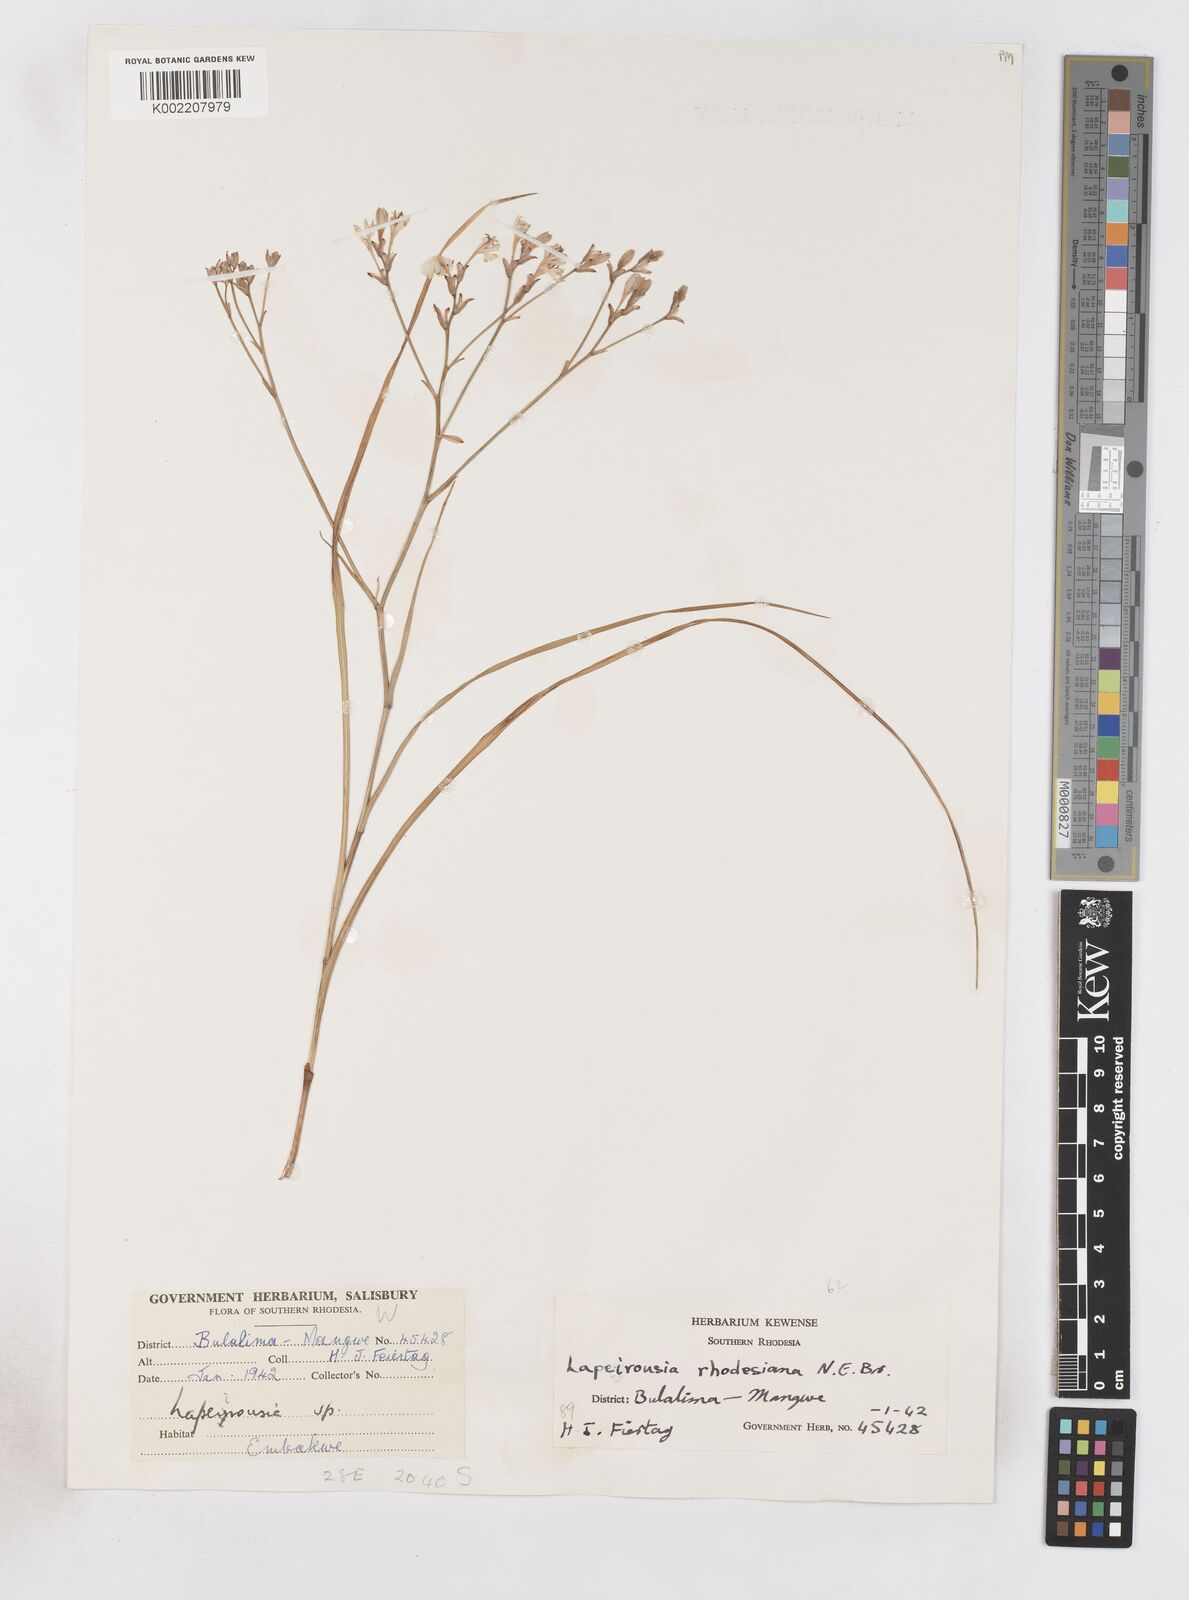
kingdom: Plantae
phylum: Tracheophyta
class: Liliopsida
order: Asparagales
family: Iridaceae
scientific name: Iridaceae
